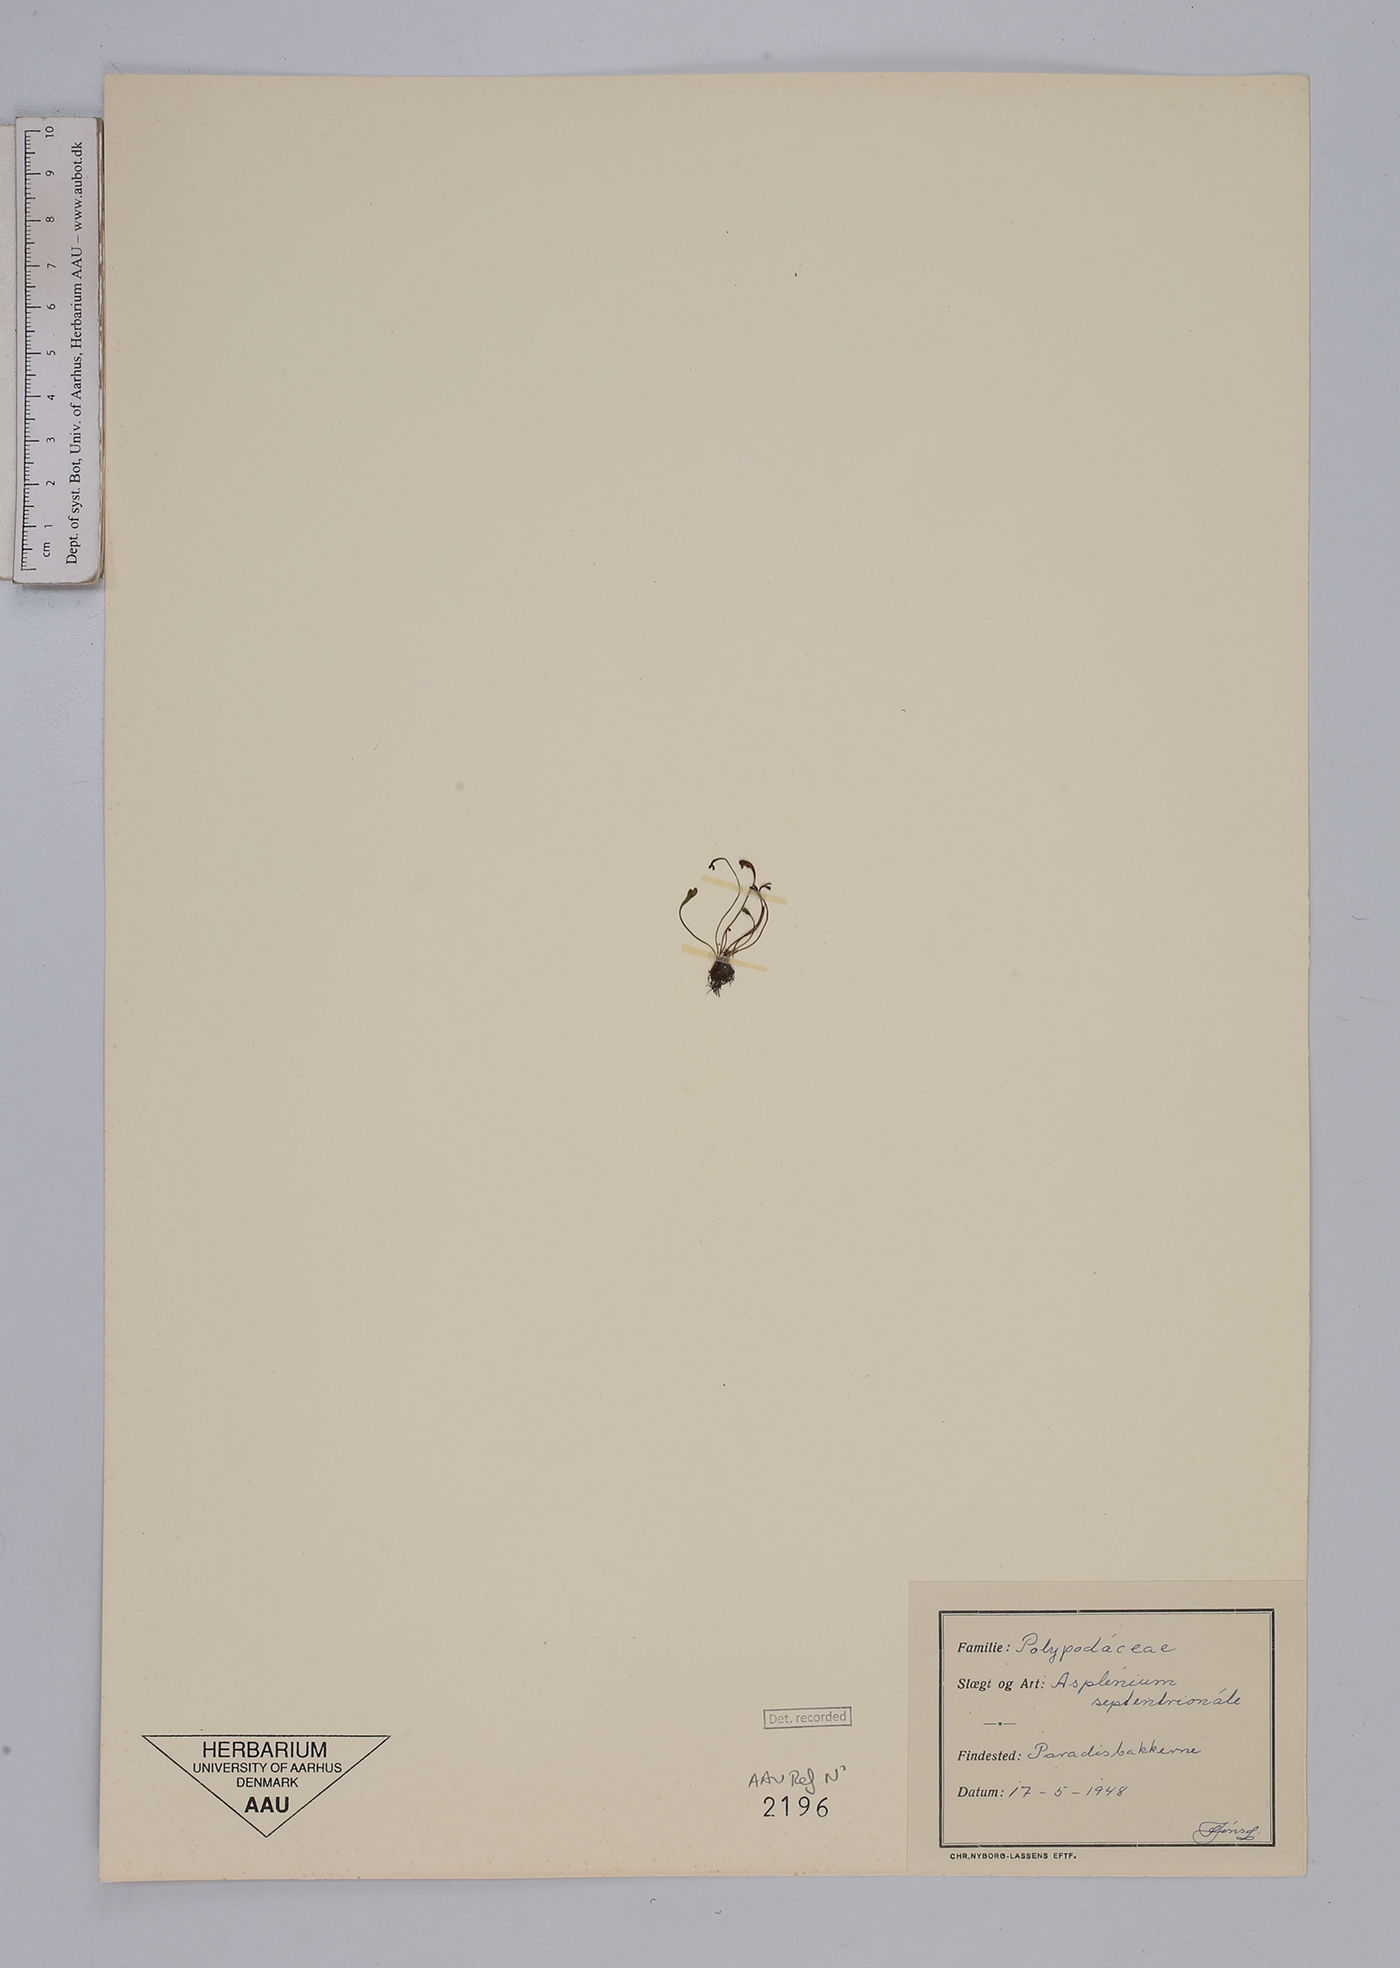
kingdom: Plantae
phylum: Tracheophyta
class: Polypodiopsida
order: Polypodiales
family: Aspleniaceae
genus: Asplenium
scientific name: Asplenium septentrionale
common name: Forked spleenwort
